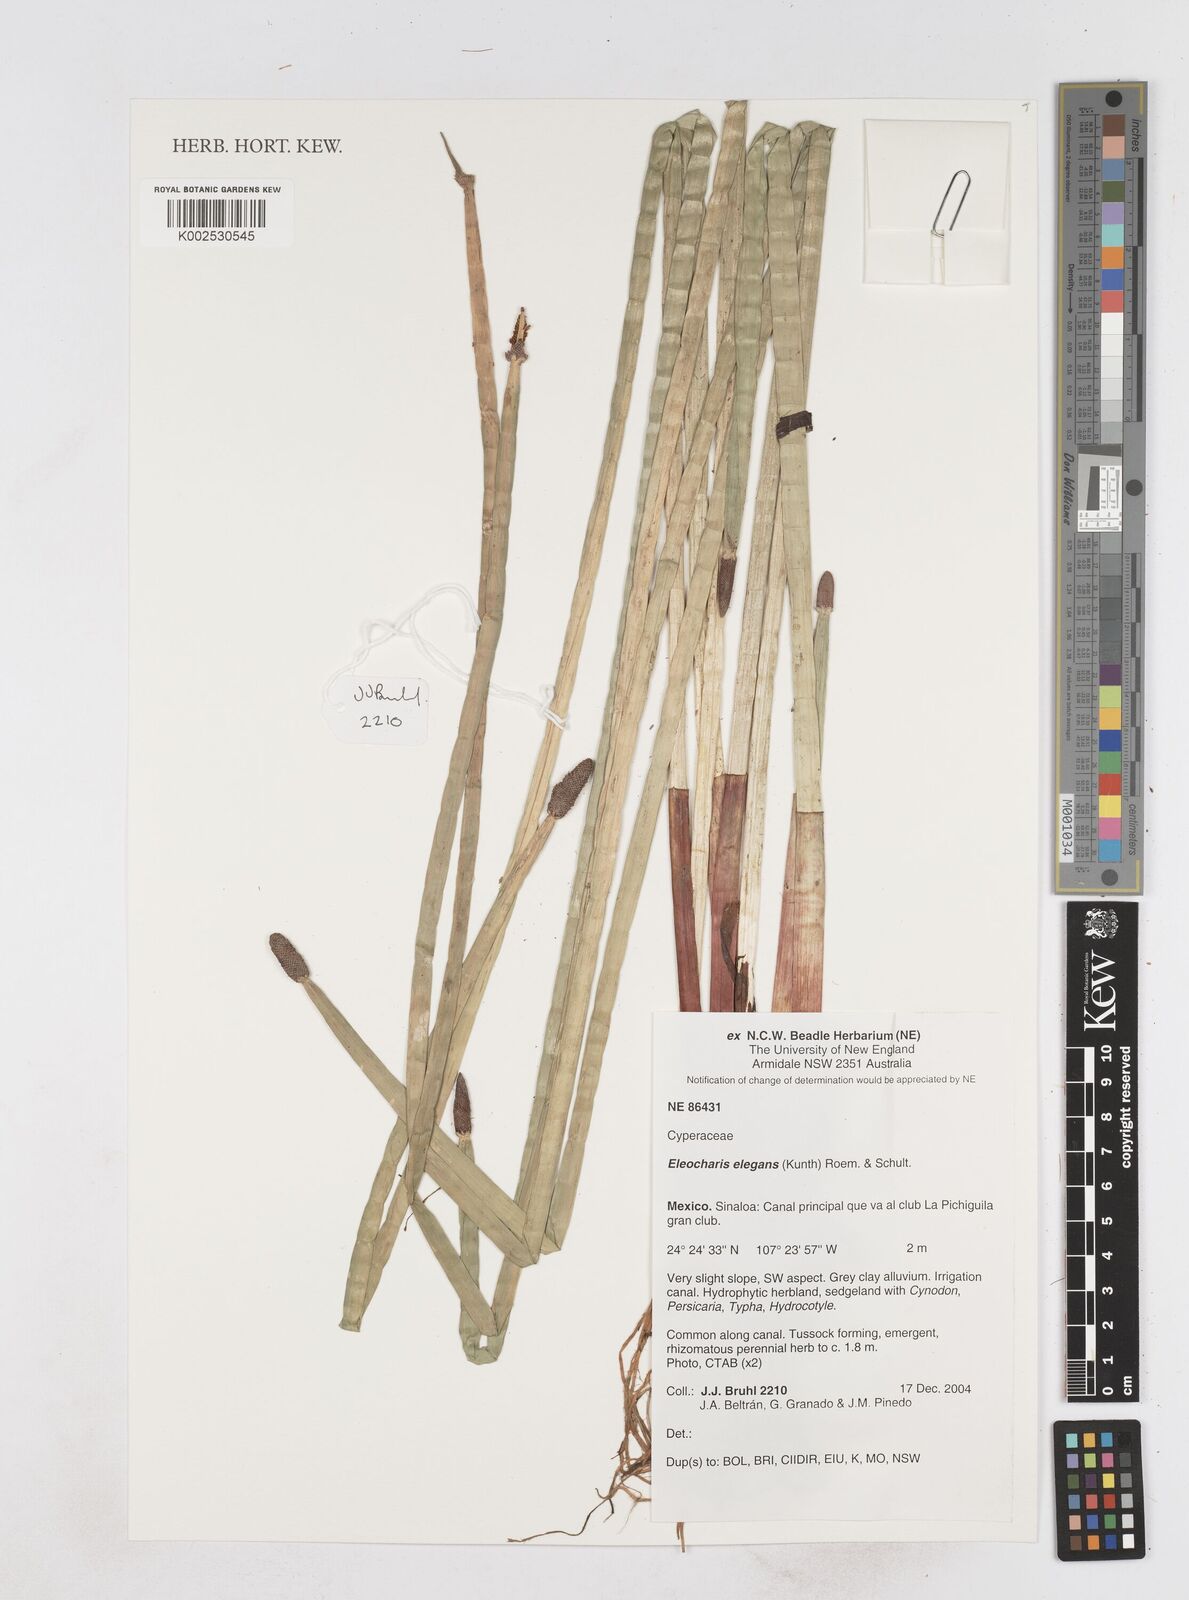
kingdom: Plantae
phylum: Tracheophyta
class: Liliopsida
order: Poales
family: Cyperaceae
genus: Eleocharis
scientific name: Eleocharis elegans
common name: Elegant spike-rush
